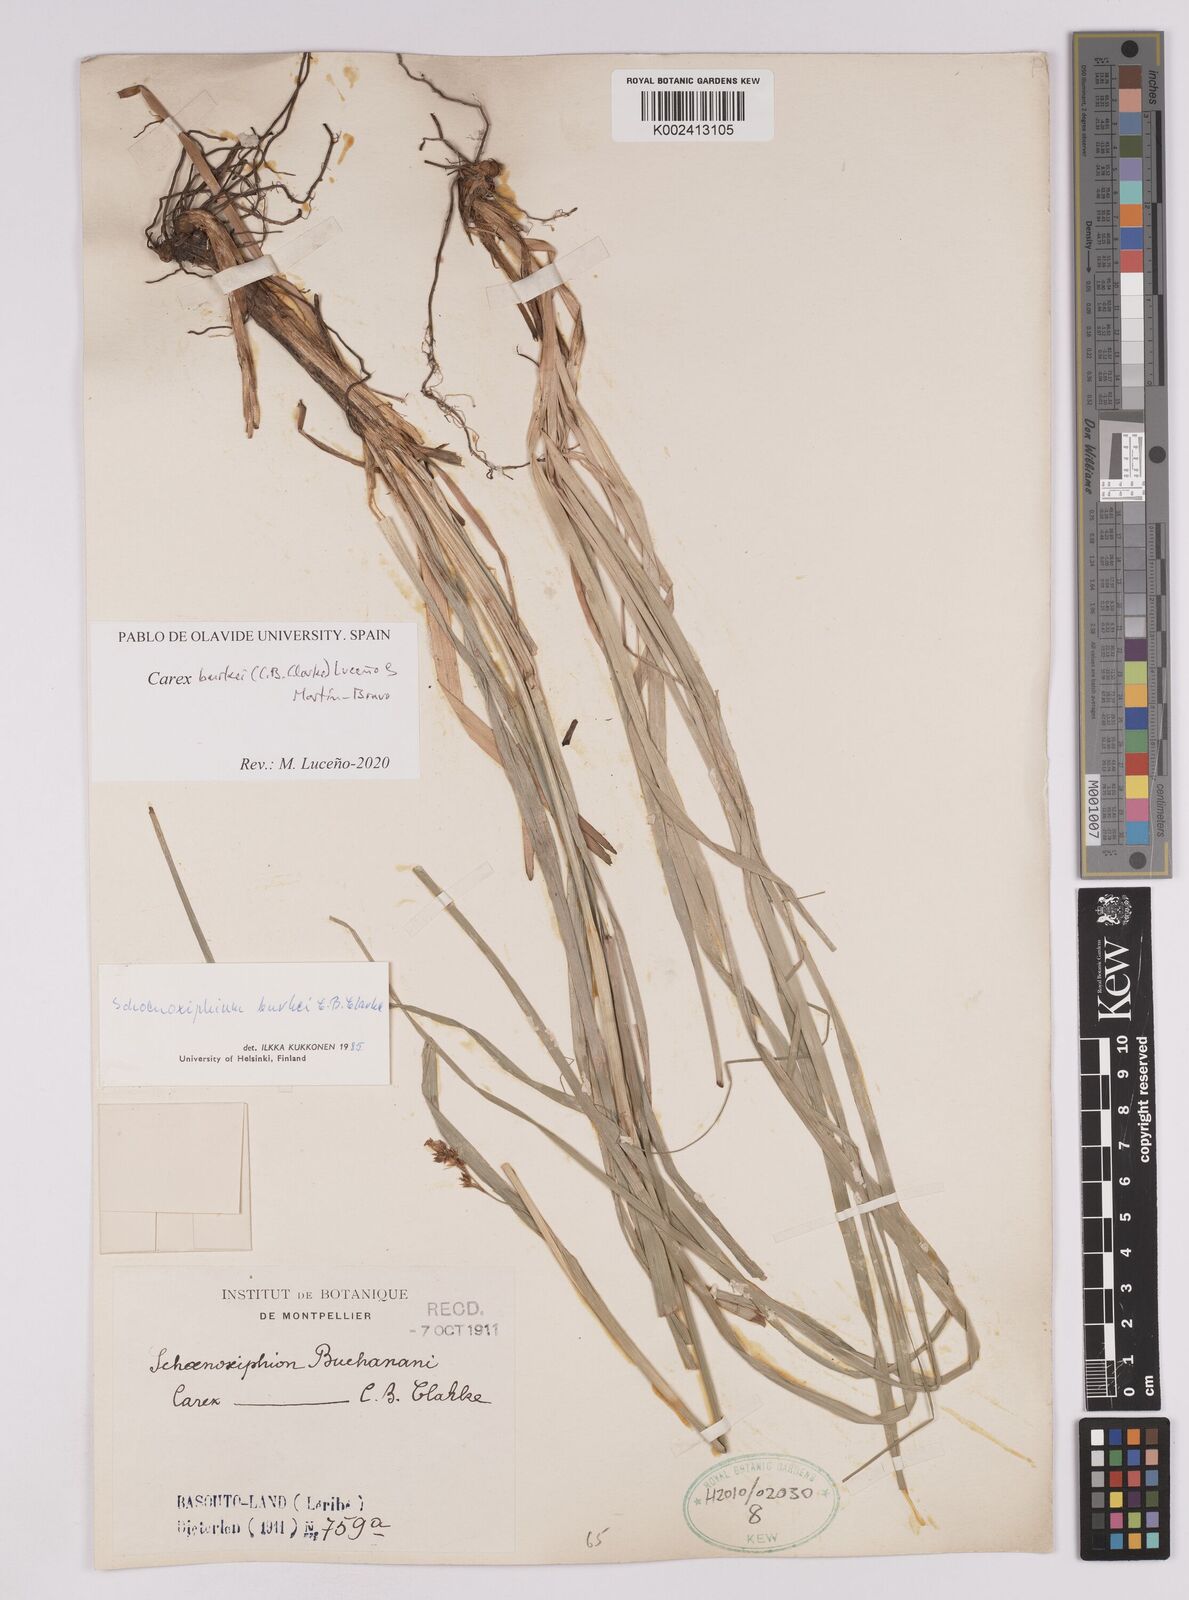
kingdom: Plantae
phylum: Tracheophyta
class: Liliopsida
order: Poales
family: Cyperaceae
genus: Carex
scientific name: Carex burkei
